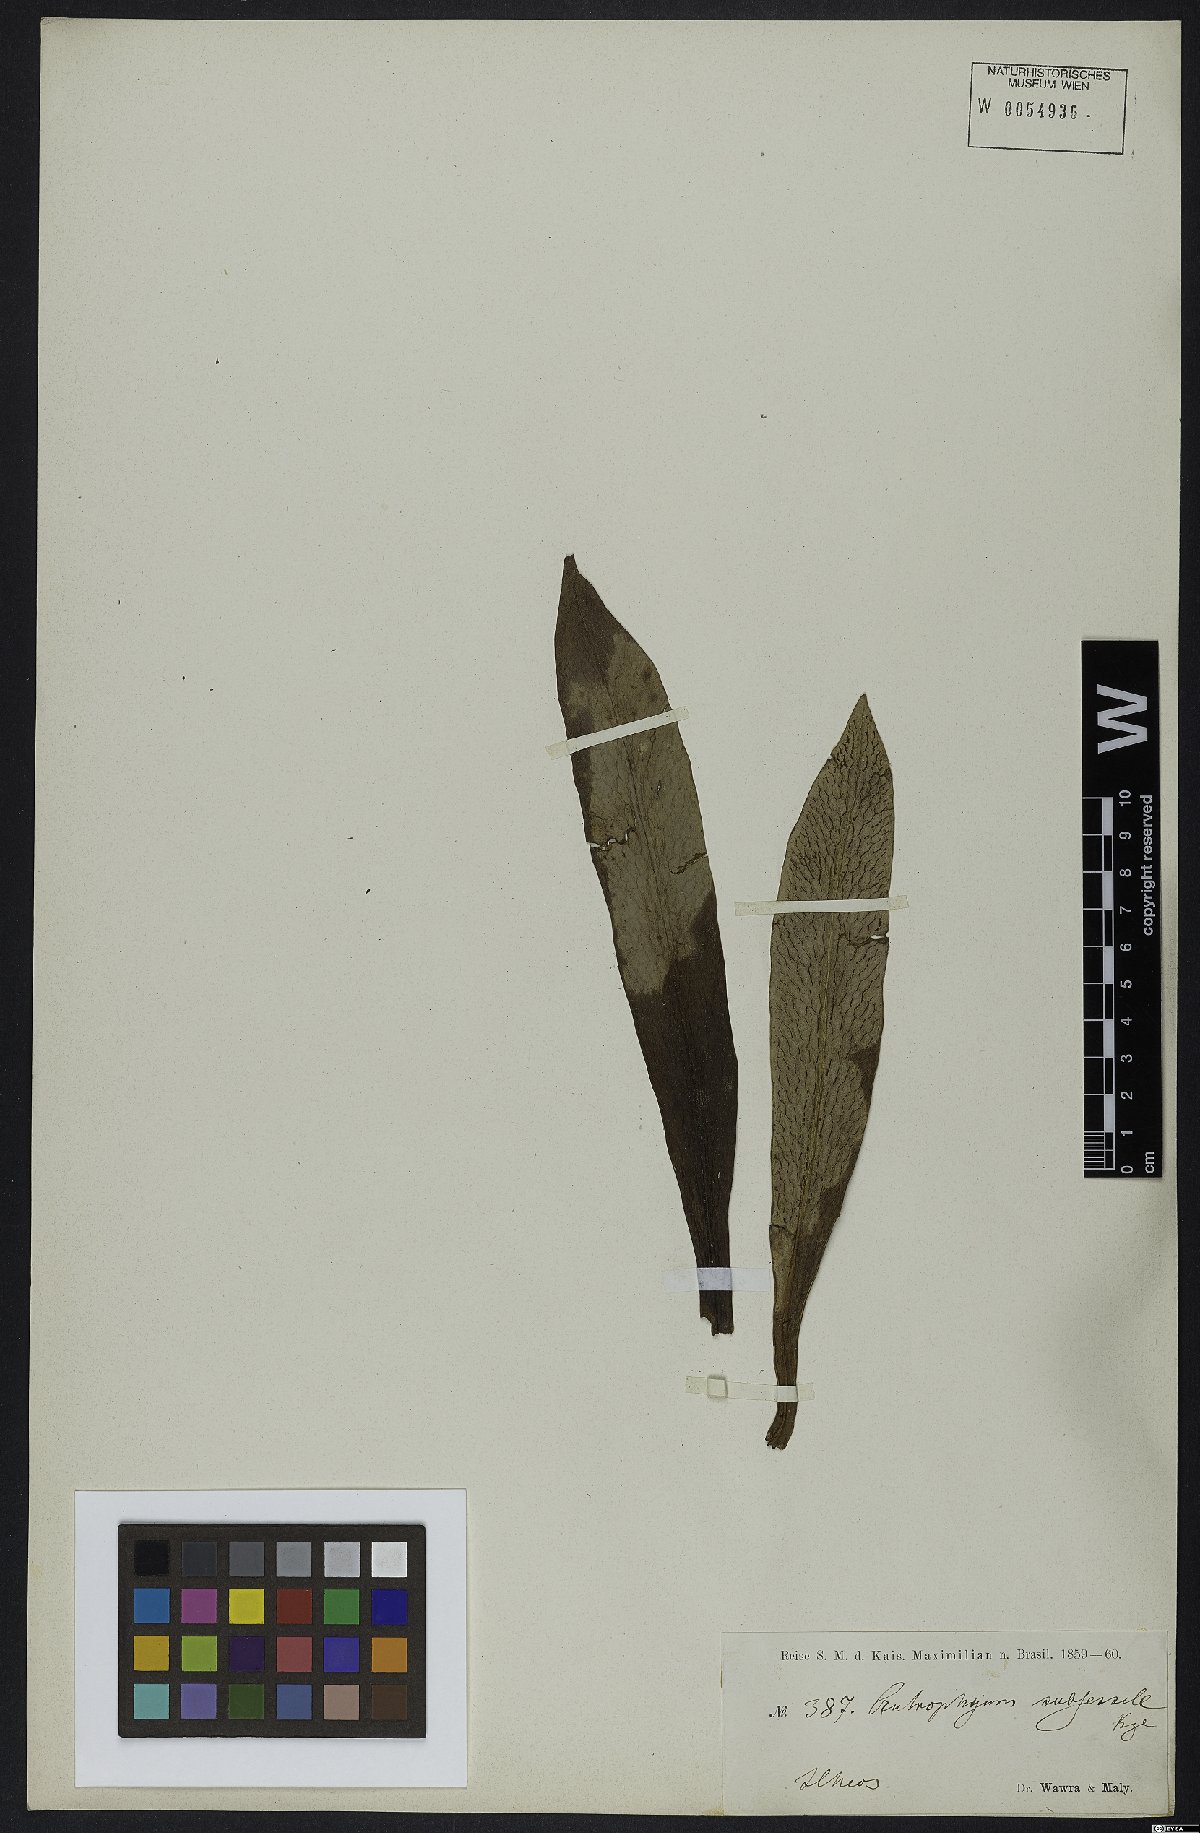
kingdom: Plantae
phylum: Tracheophyta
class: Polypodiopsida
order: Polypodiales
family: Pteridaceae
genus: Polytaenium
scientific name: Polytaenium cajenense
